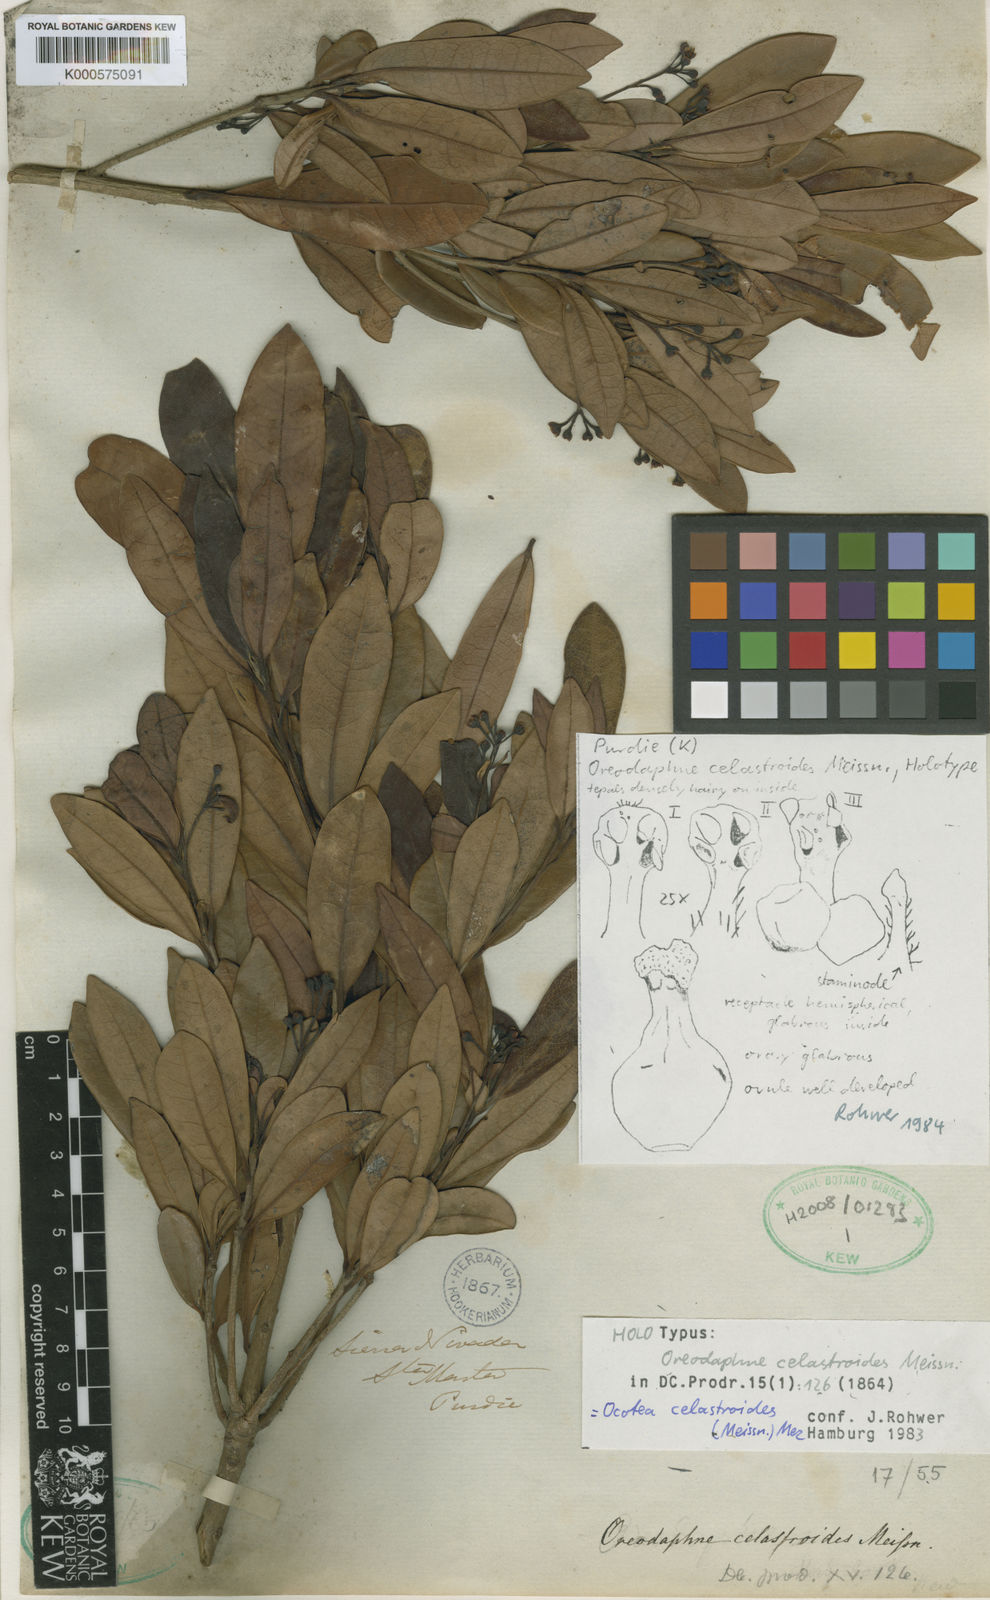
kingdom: Plantae
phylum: Tracheophyta
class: Magnoliopsida
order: Laurales
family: Lauraceae
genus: Ocotea
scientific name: Ocotea celastroides
